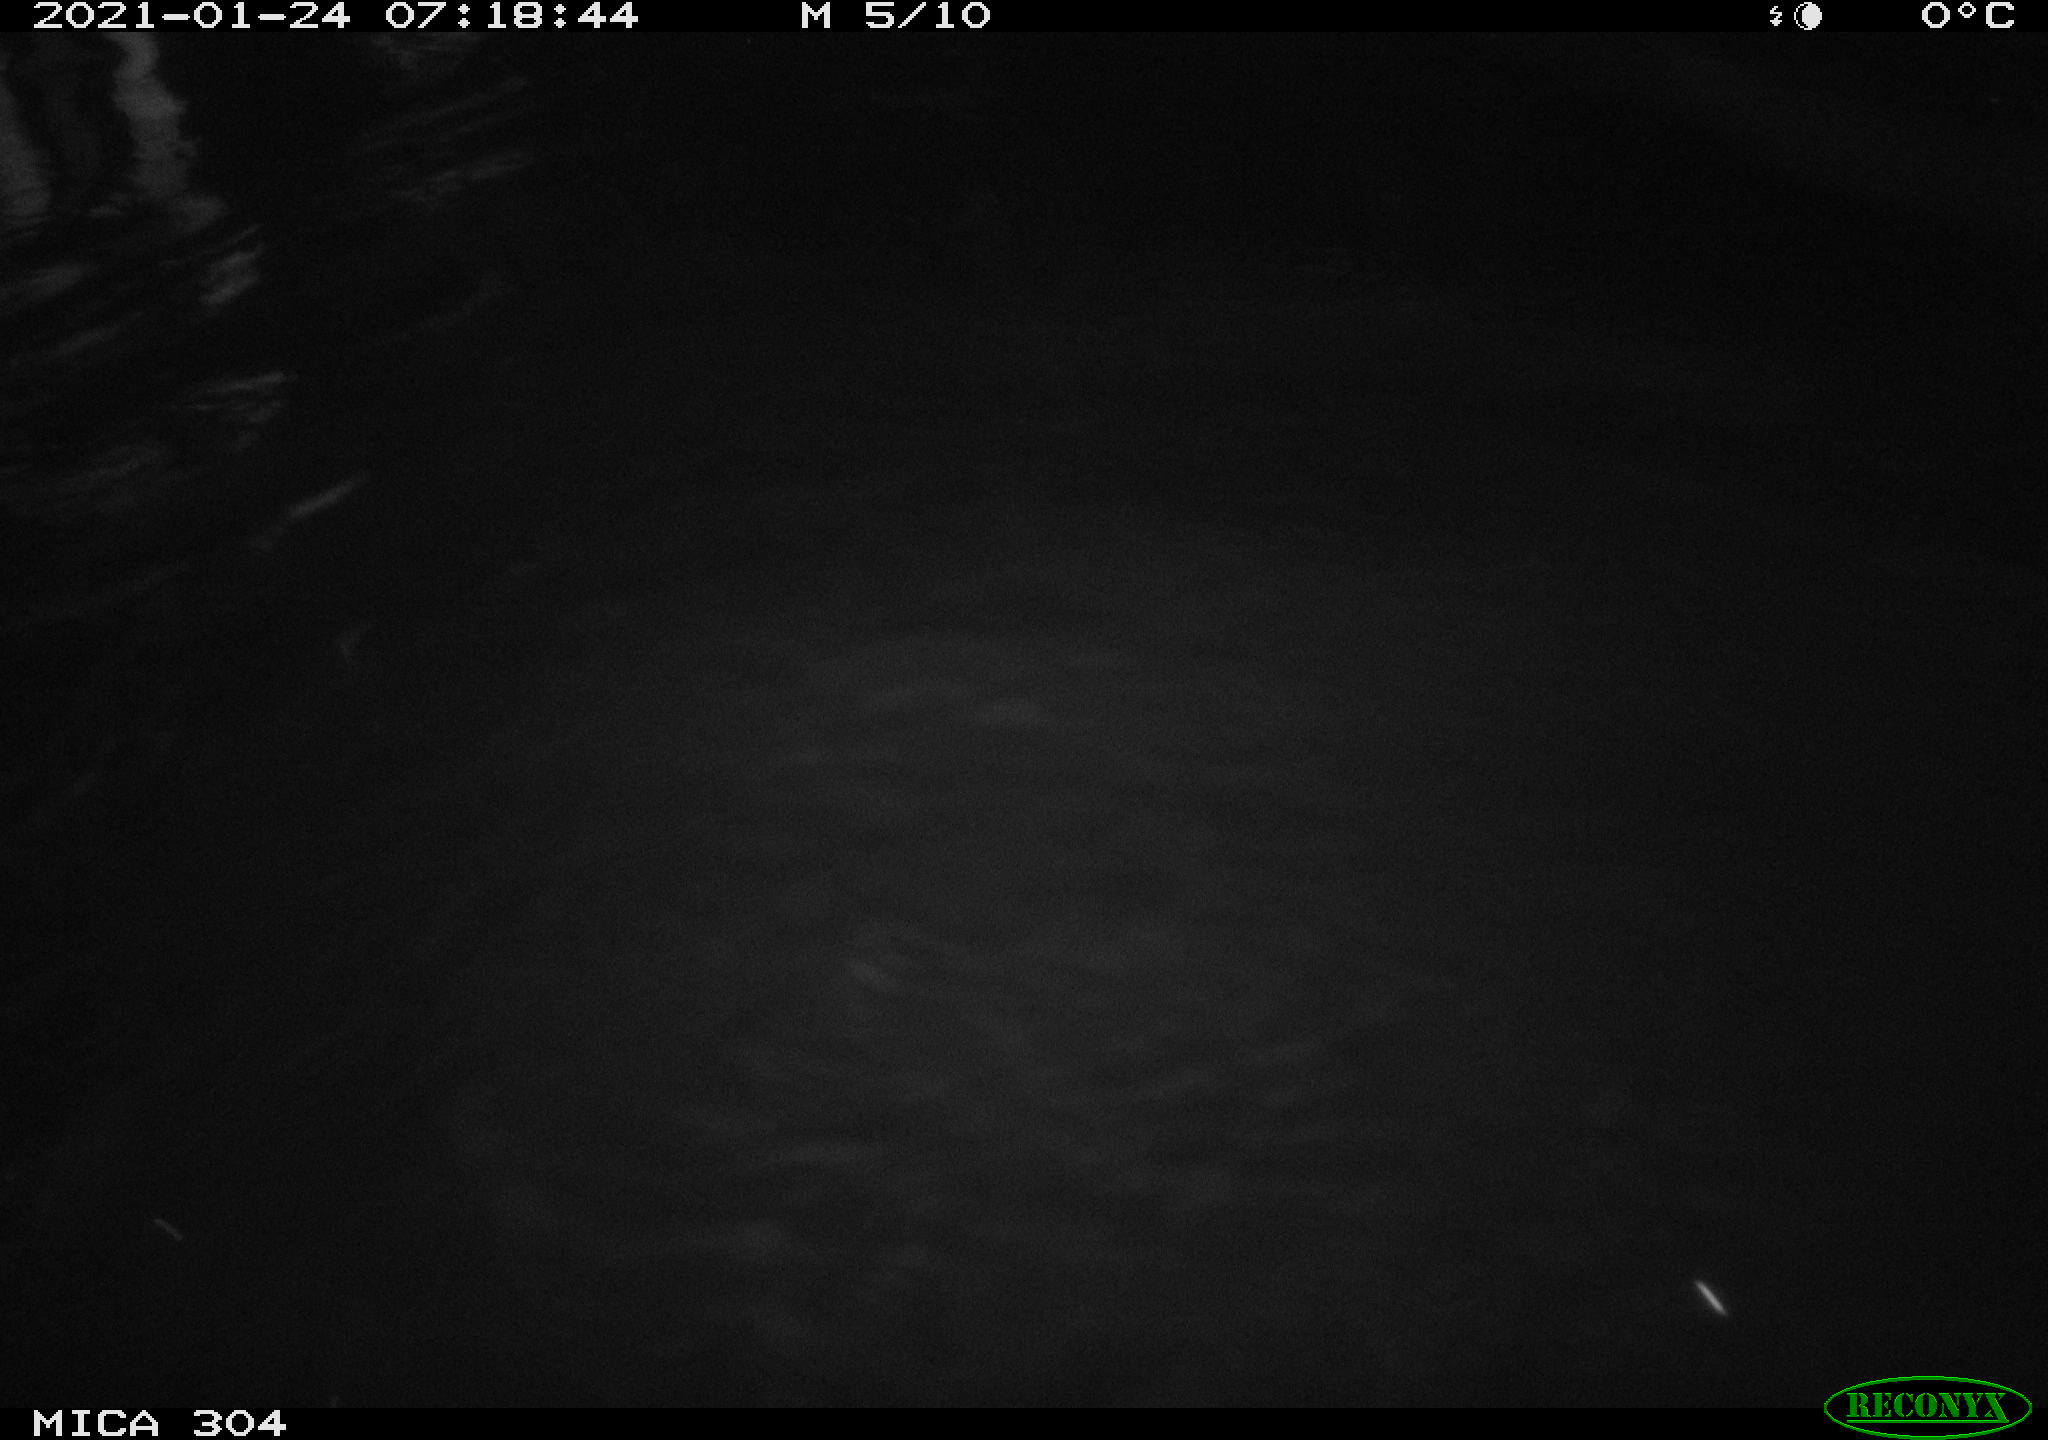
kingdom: Animalia
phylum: Chordata
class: Aves
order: Anseriformes
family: Anatidae
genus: Anas
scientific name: Anas platyrhynchos
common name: Mallard
